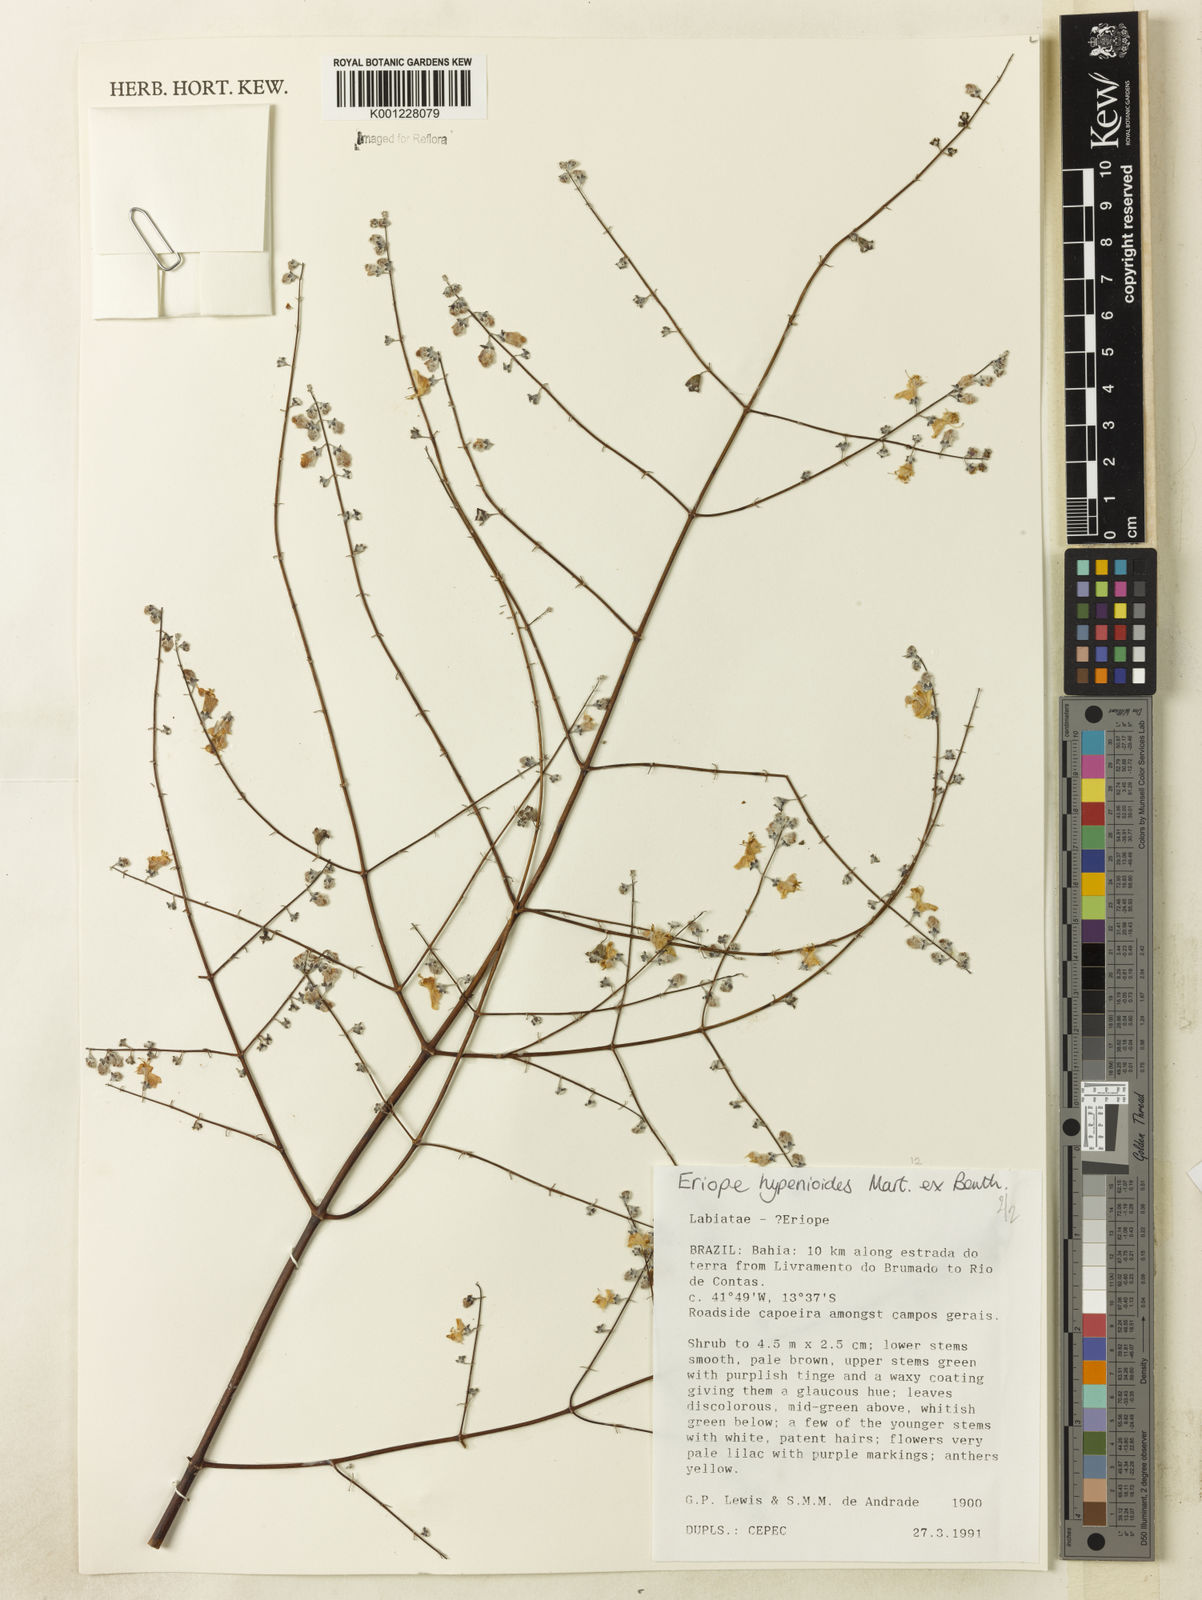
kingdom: Plantae
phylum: Tracheophyta
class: Magnoliopsida
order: Lamiales
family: Lamiaceae
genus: Eriope
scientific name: Eriope hypenioides
